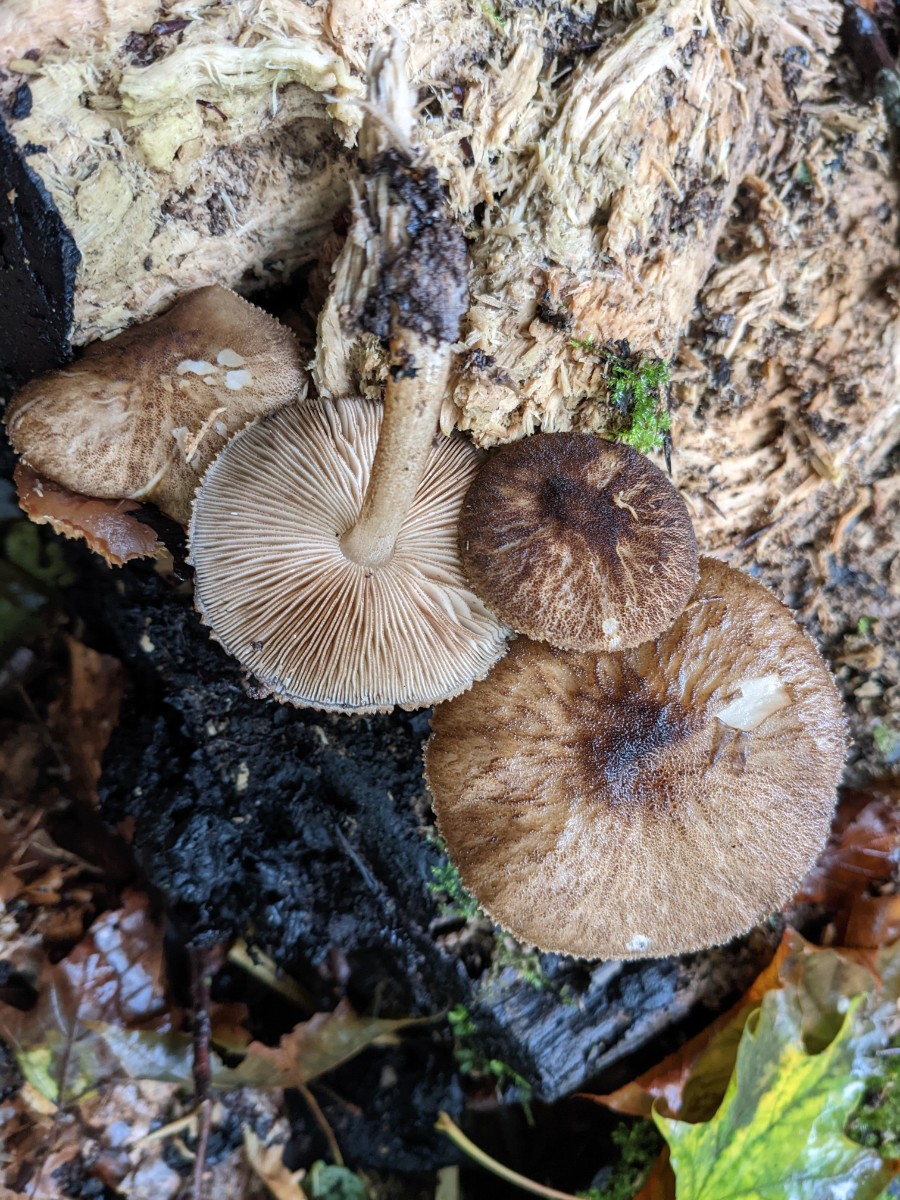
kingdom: Fungi
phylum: Basidiomycota
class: Agaricomycetes
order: Agaricales
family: Pluteaceae
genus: Pluteus
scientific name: Pluteus umbrosus
